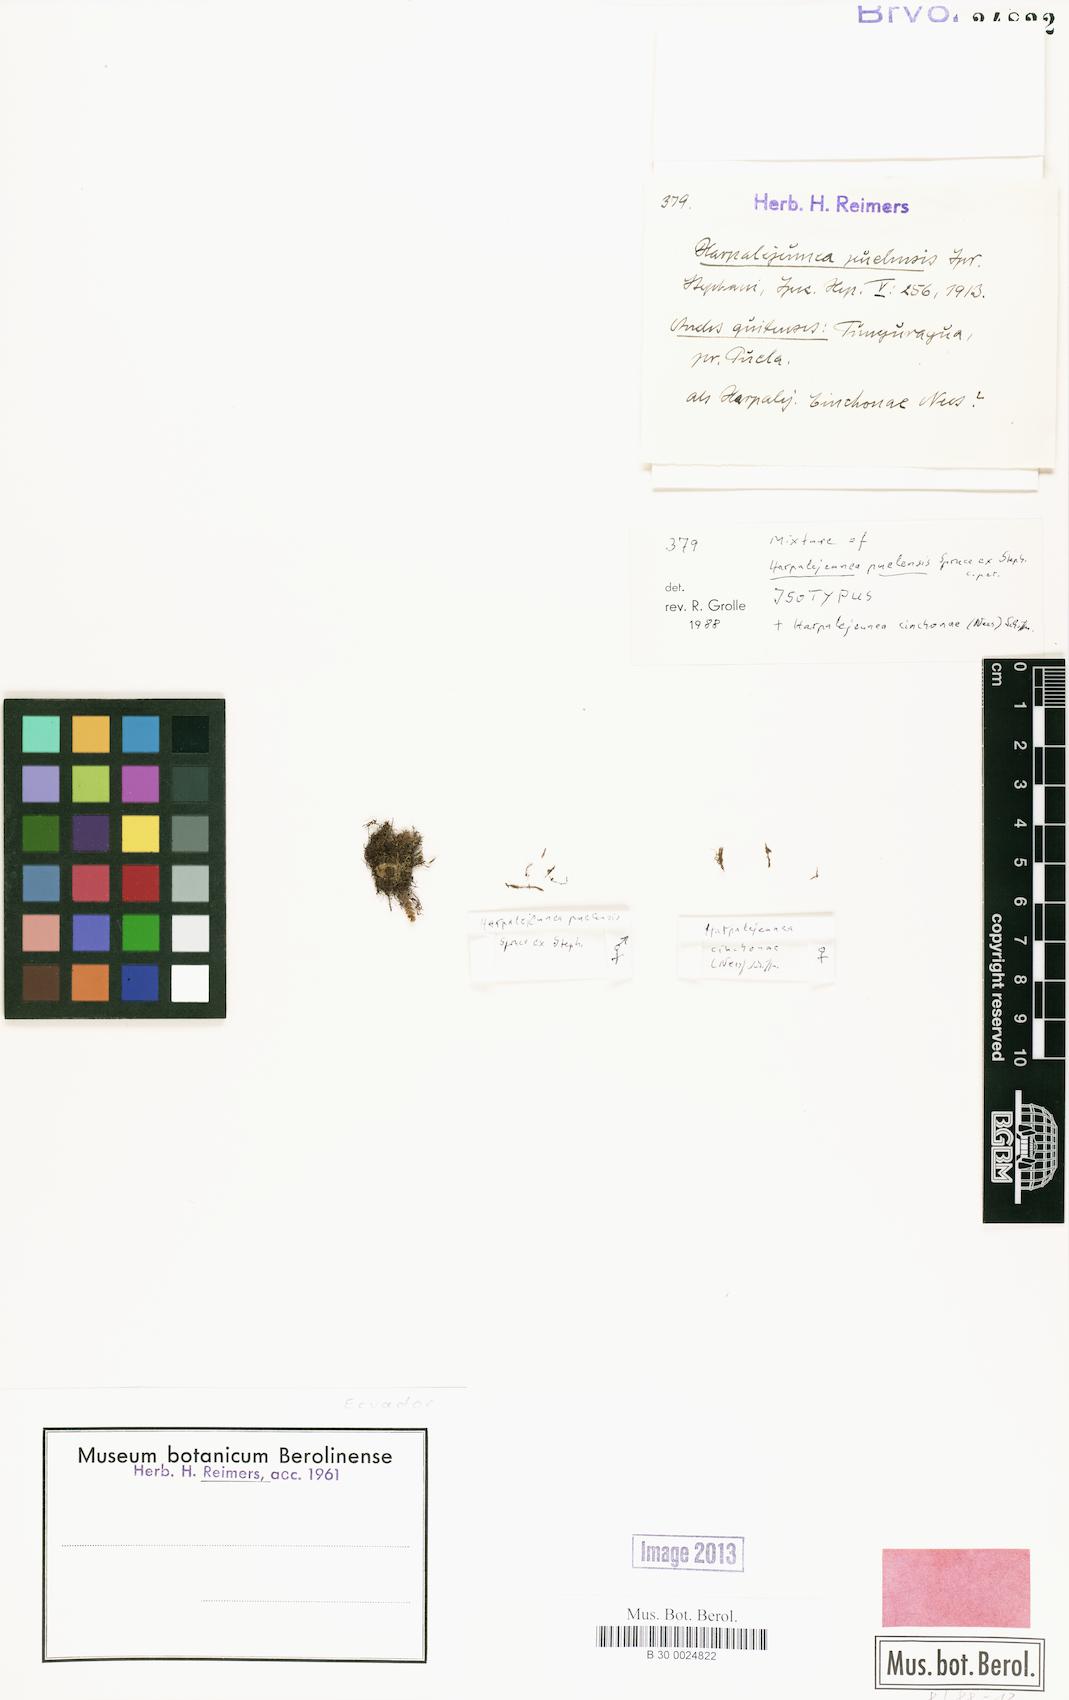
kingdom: Plantae
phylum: Marchantiophyta
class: Jungermanniopsida
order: Porellales
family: Lejeuneaceae
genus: Cheilolejeunea
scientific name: Cheilolejeunea comans
